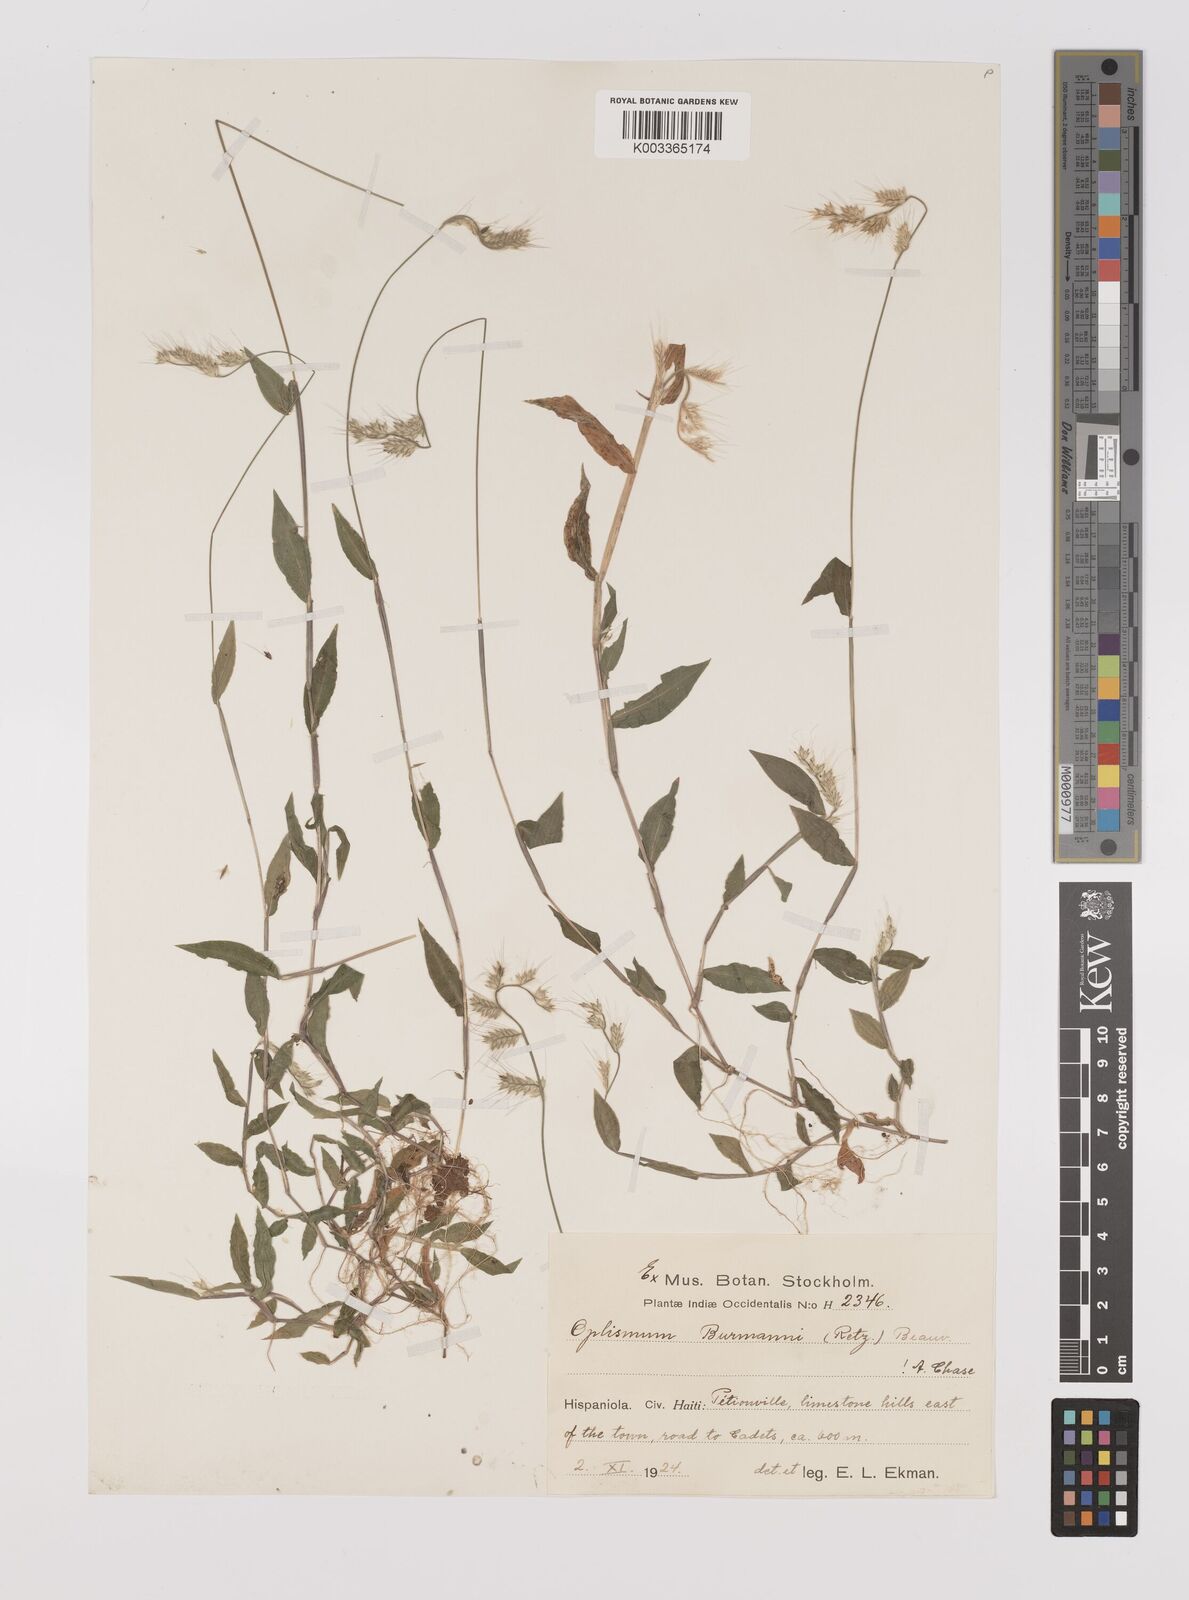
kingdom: Plantae
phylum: Tracheophyta
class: Liliopsida
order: Poales
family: Poaceae
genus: Oplismenus
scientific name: Oplismenus burmanni
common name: Burmann's basketgrass
